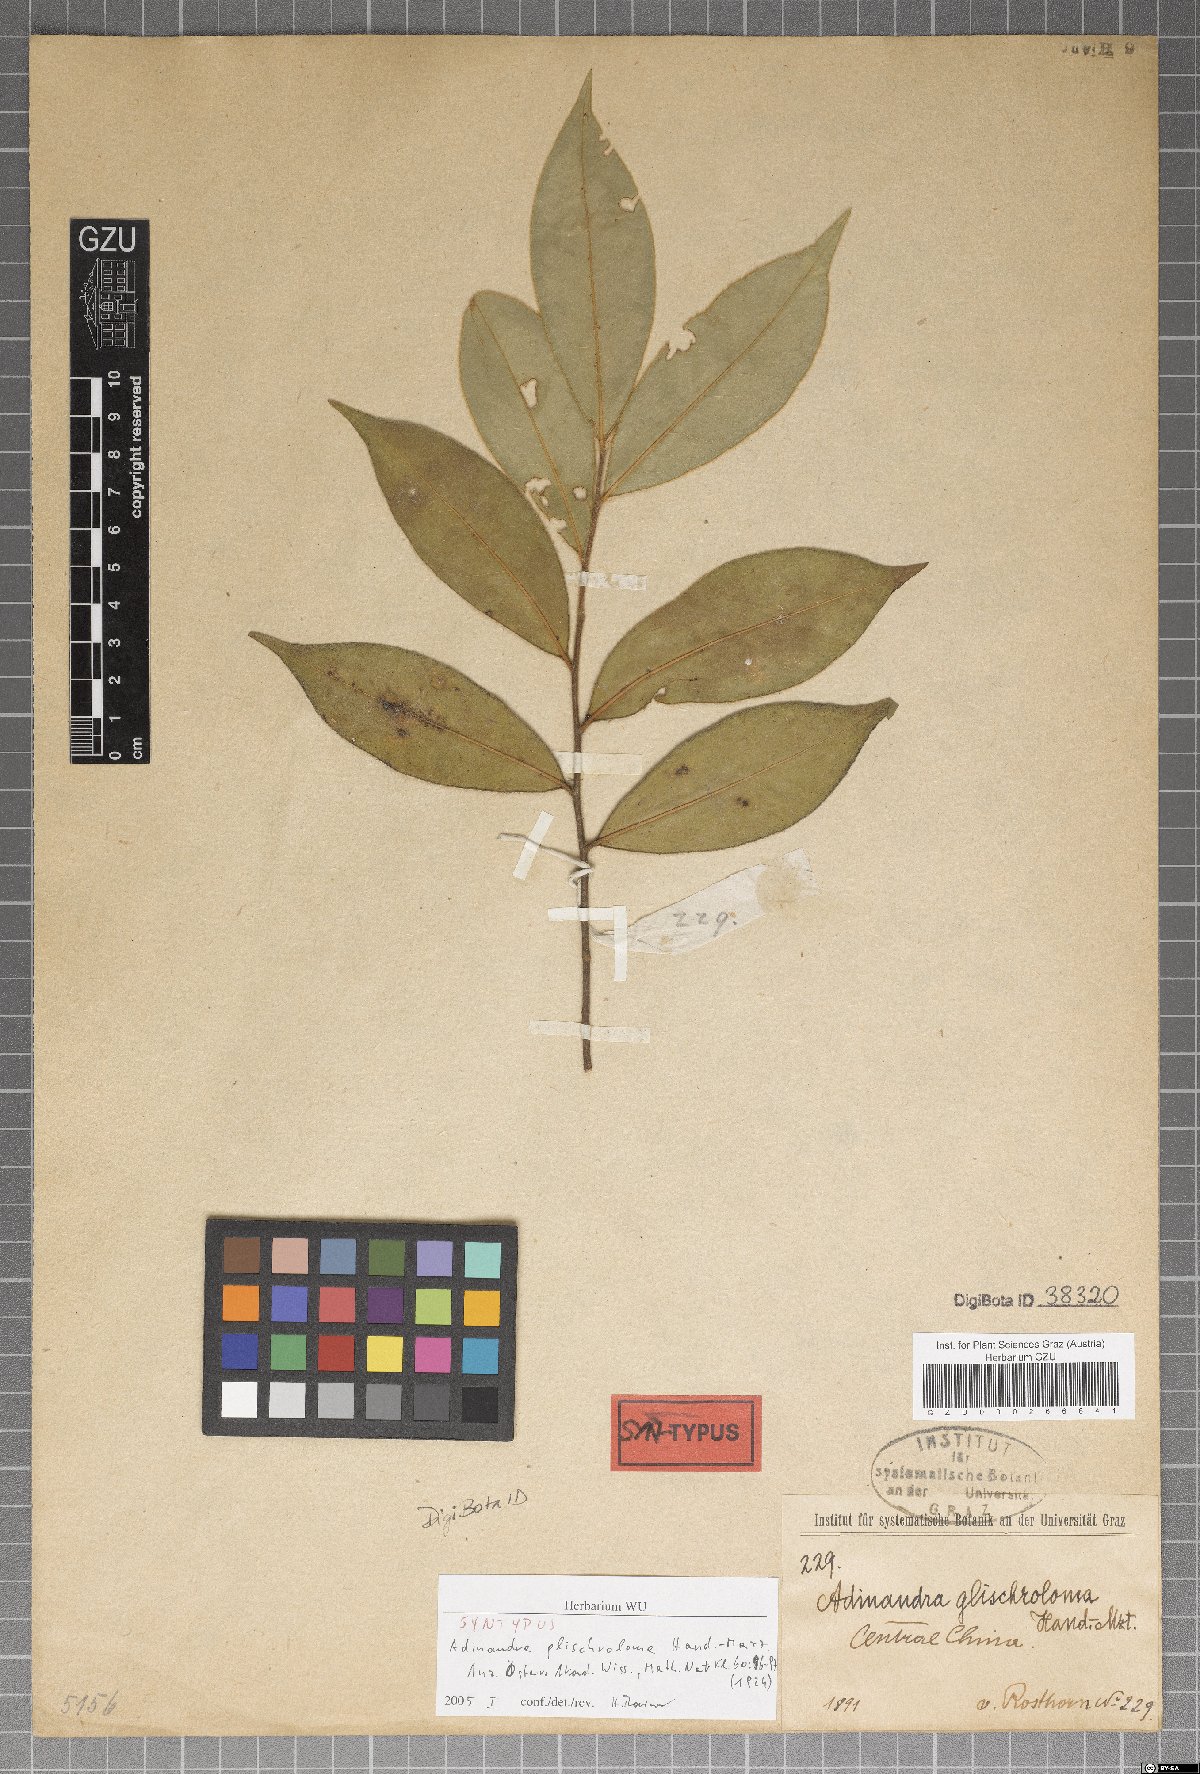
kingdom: Plantae
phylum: Tracheophyta
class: Magnoliopsida
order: Ericales
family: Pentaphylacaceae
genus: Adinandra
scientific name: Adinandra glischroloma
